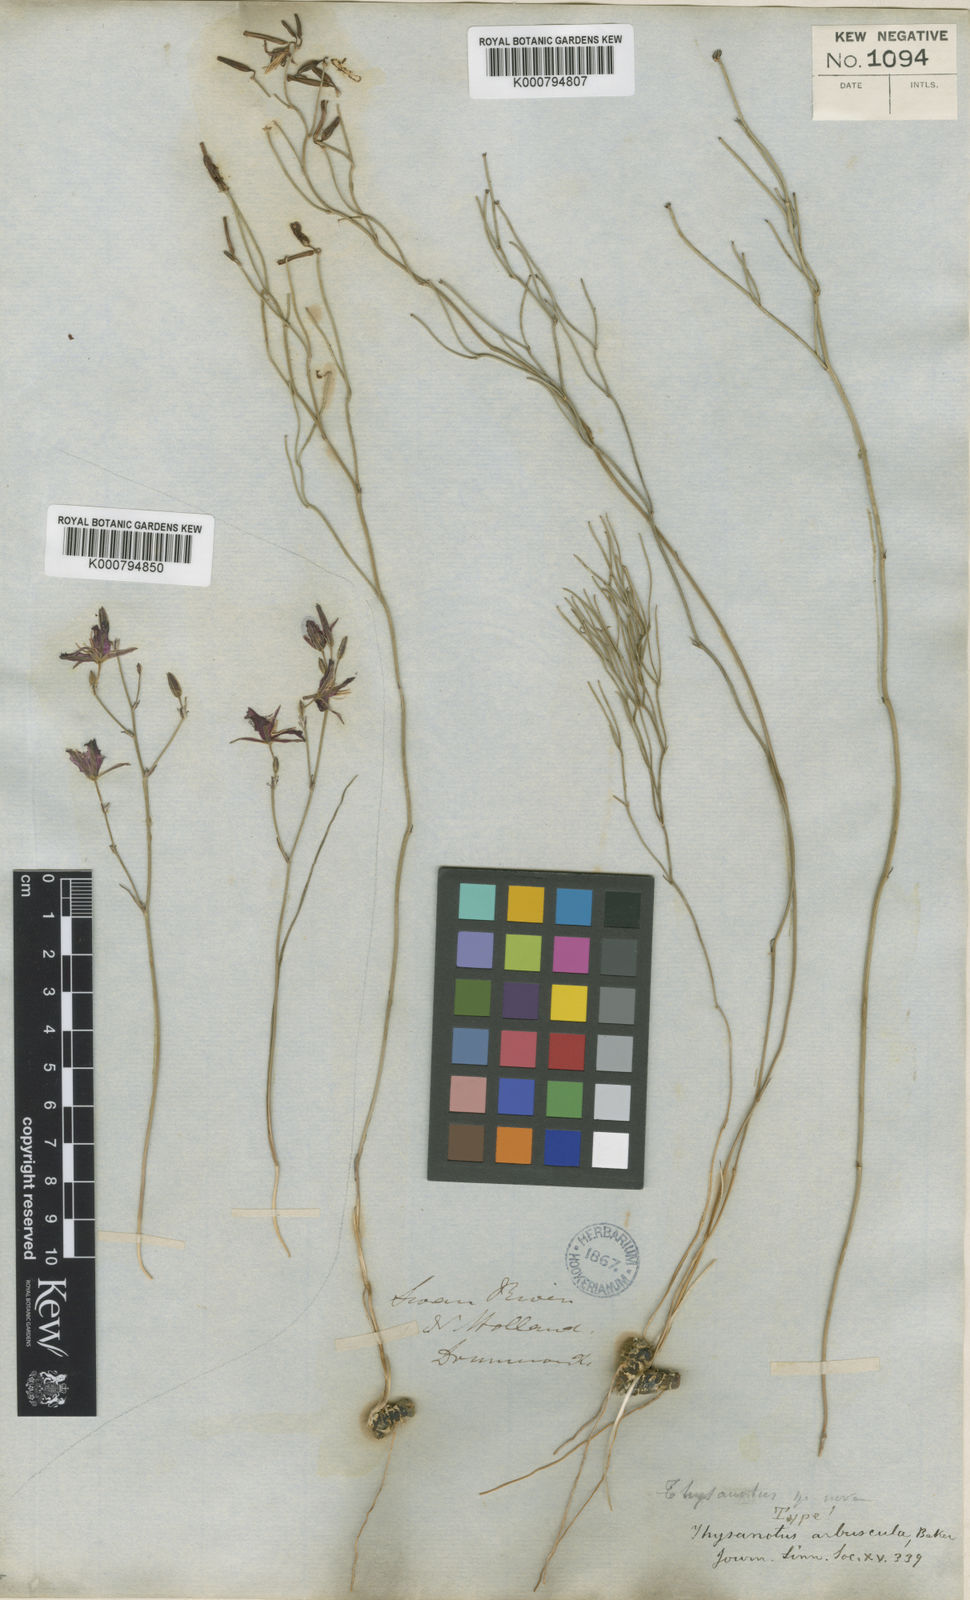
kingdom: Plantae
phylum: Tracheophyta
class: Liliopsida
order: Asparagales
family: Asparagaceae
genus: Thysanotus
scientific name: Thysanotus arbuscula
